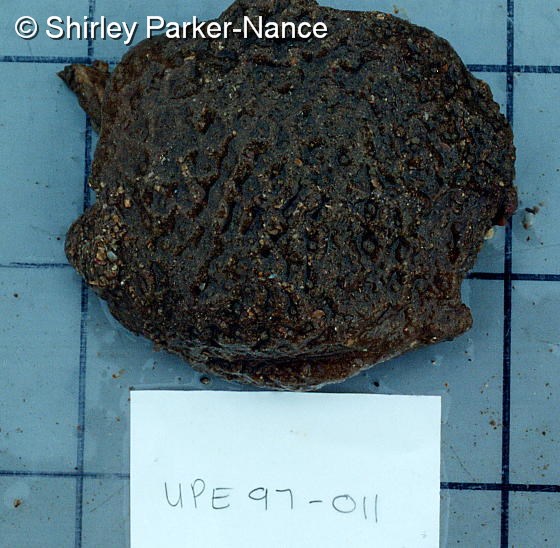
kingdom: Animalia
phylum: Chordata
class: Ascidiacea
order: Aplousobranchia
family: Polyclinidae
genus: Aplidium
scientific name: Aplidium
